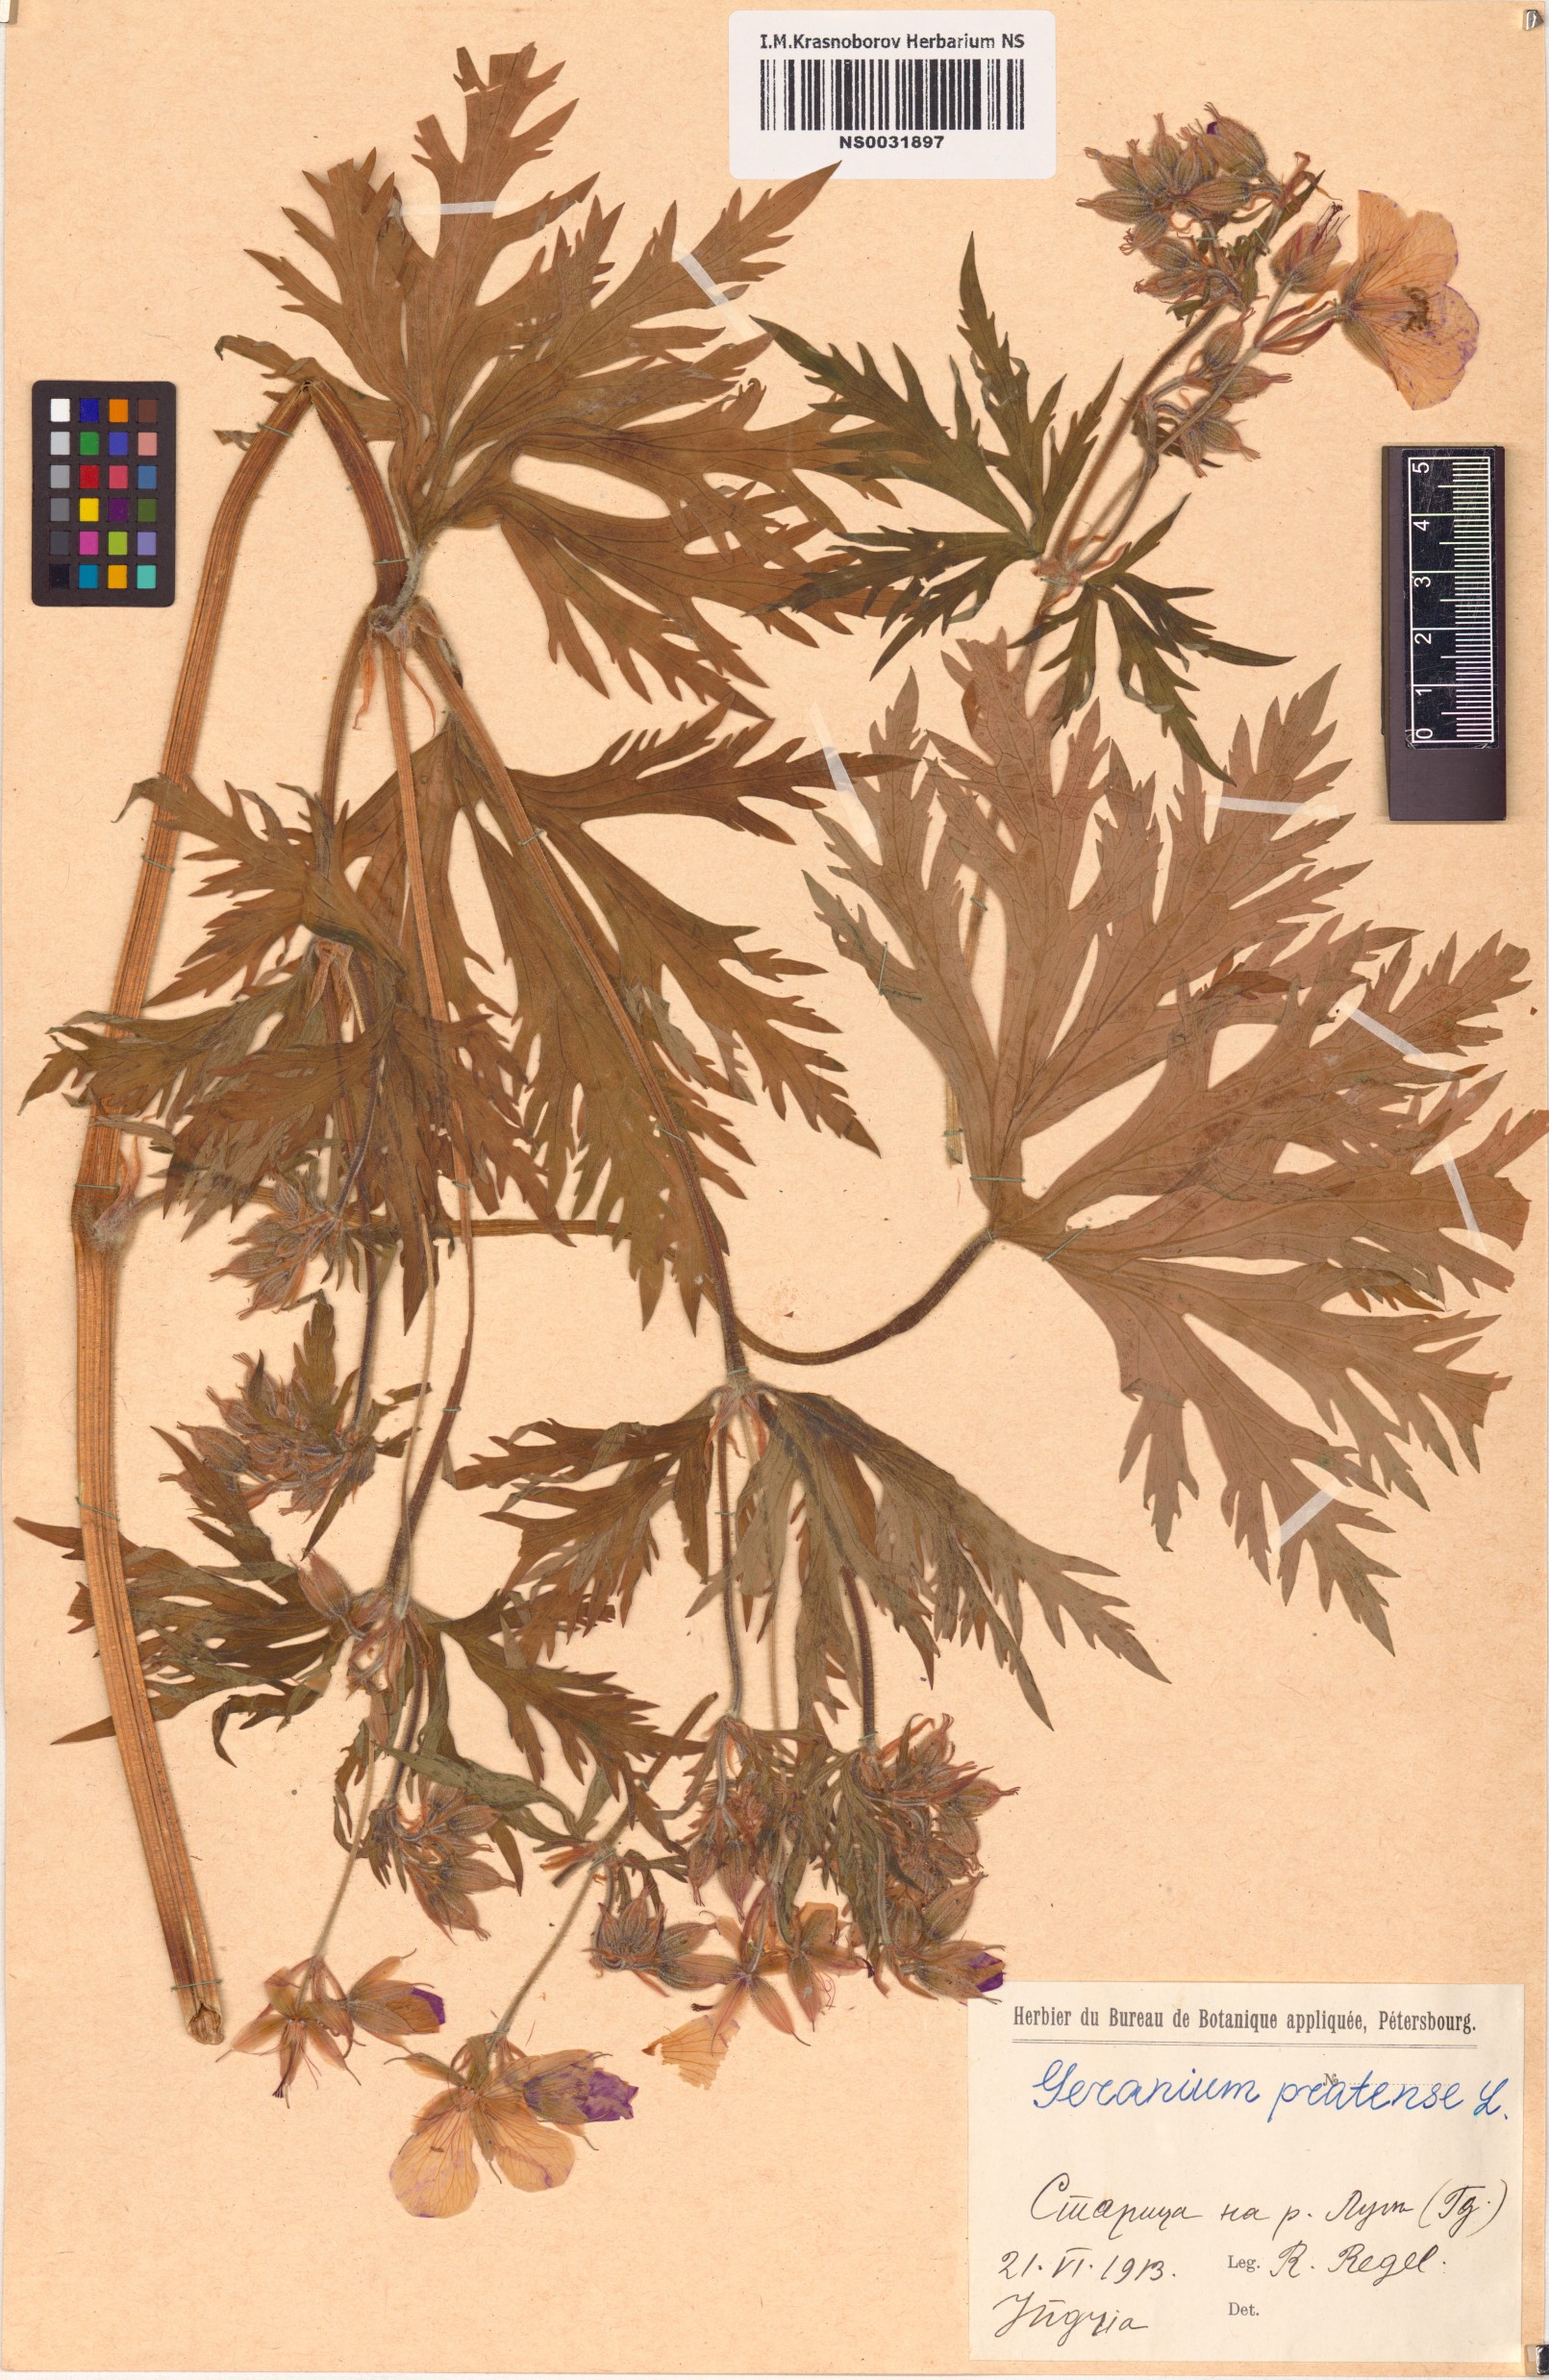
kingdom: Plantae
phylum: Tracheophyta
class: Magnoliopsida
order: Geraniales
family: Geraniaceae
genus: Geranium
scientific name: Geranium pratense
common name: Meadow crane's-bill
